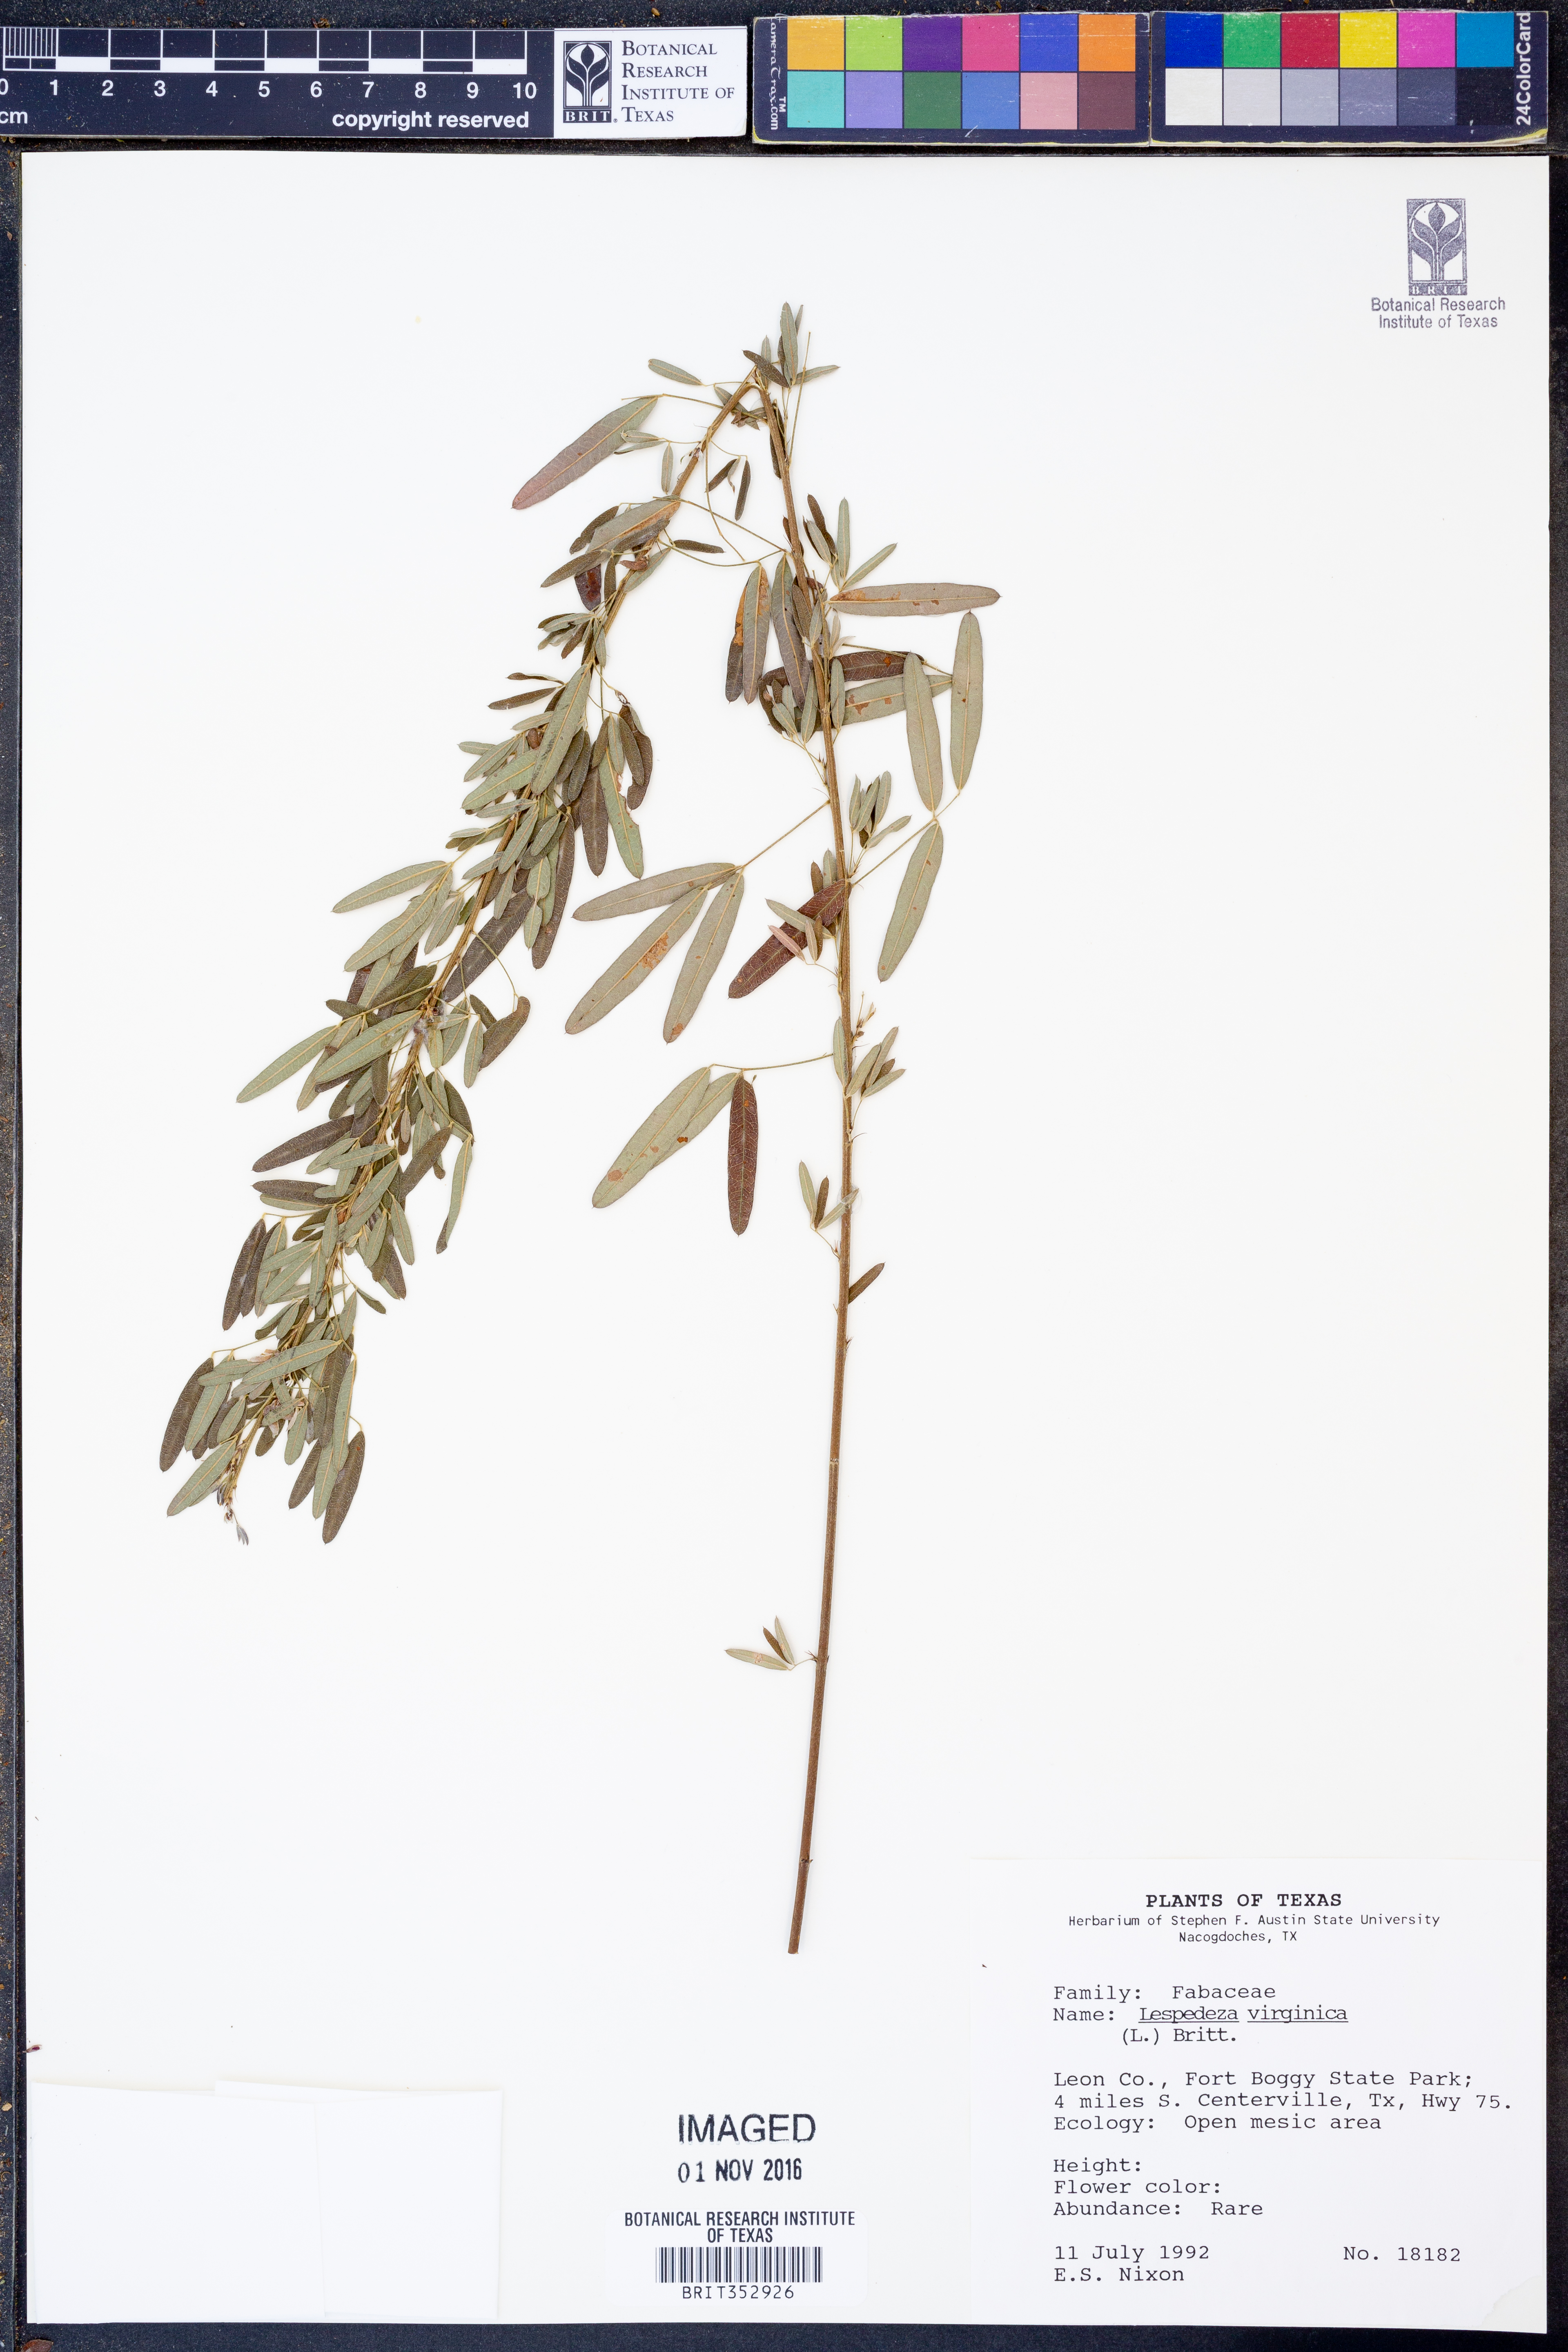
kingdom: Plantae
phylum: Tracheophyta
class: Magnoliopsida
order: Fabales
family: Fabaceae
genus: Lespedeza
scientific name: Lespedeza virginica
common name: Slender bush-clover
